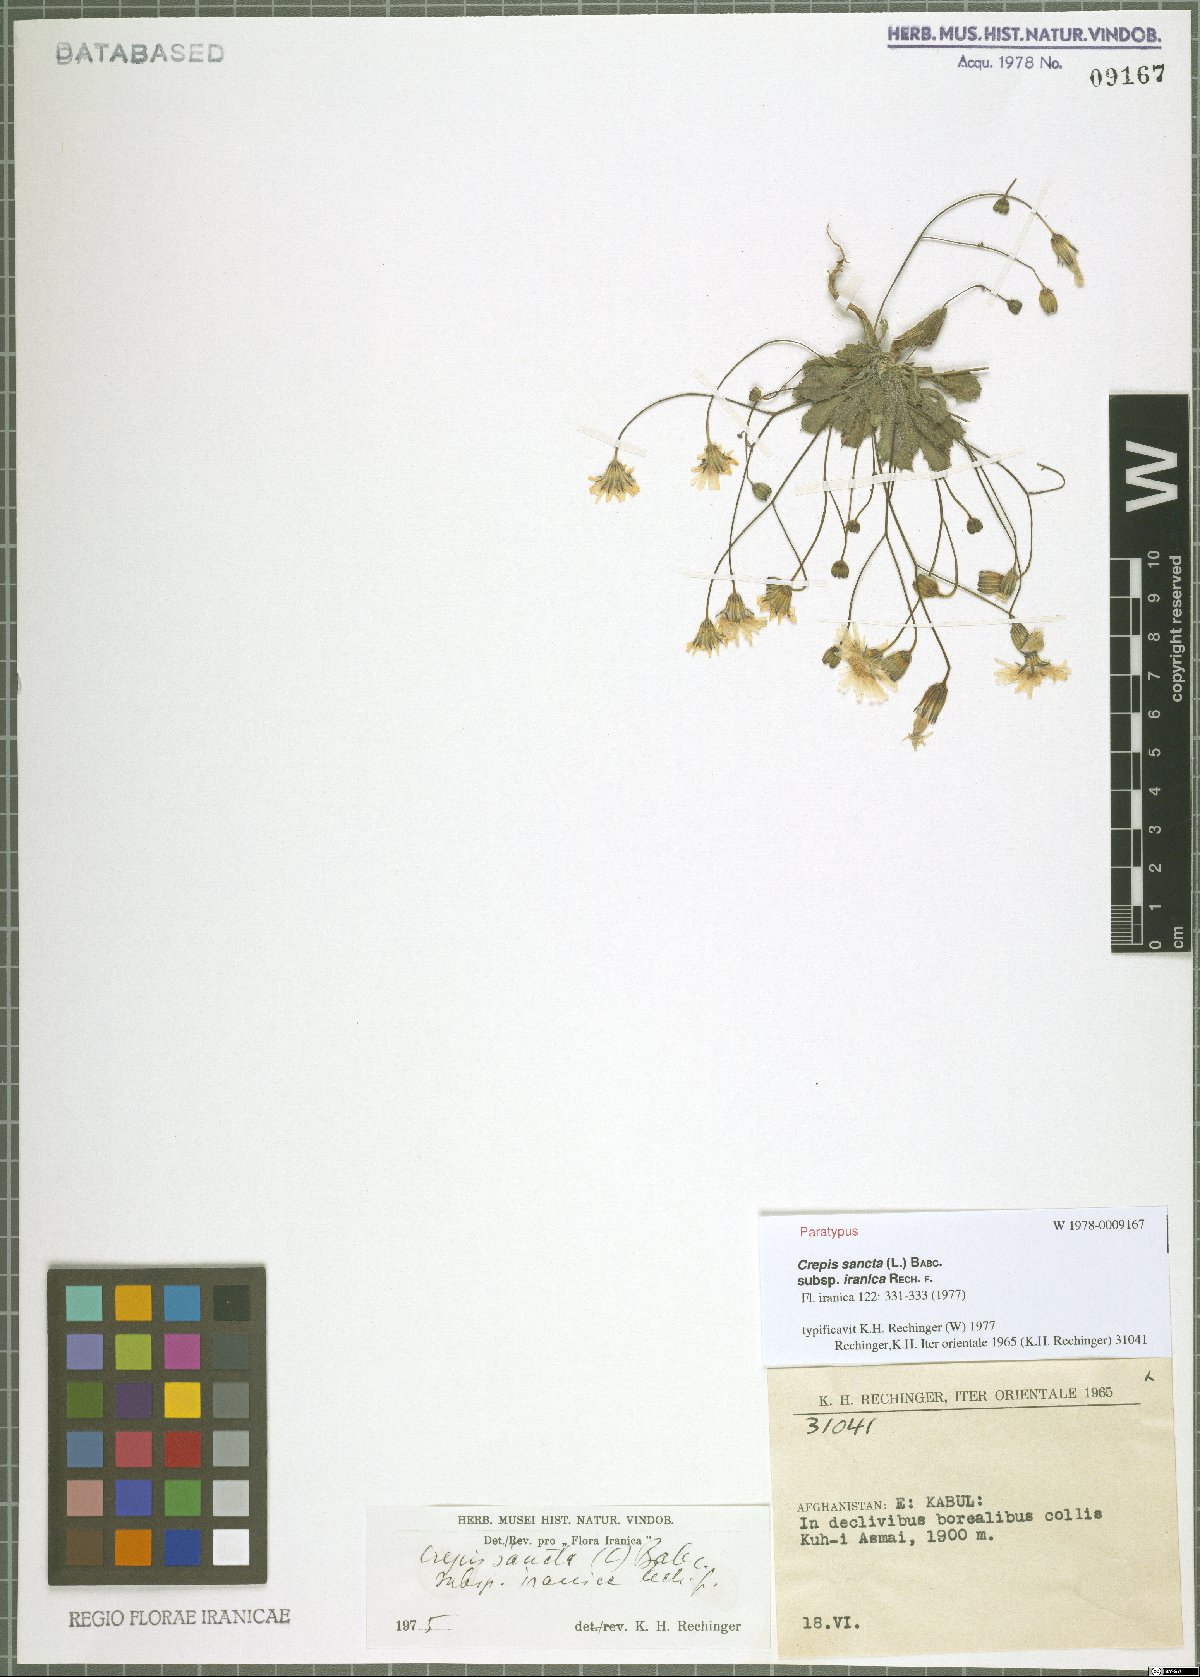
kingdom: Plantae
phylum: Tracheophyta
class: Magnoliopsida
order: Asterales
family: Asteraceae
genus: Crepis
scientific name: Crepis sancta
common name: Hawk's-beard
